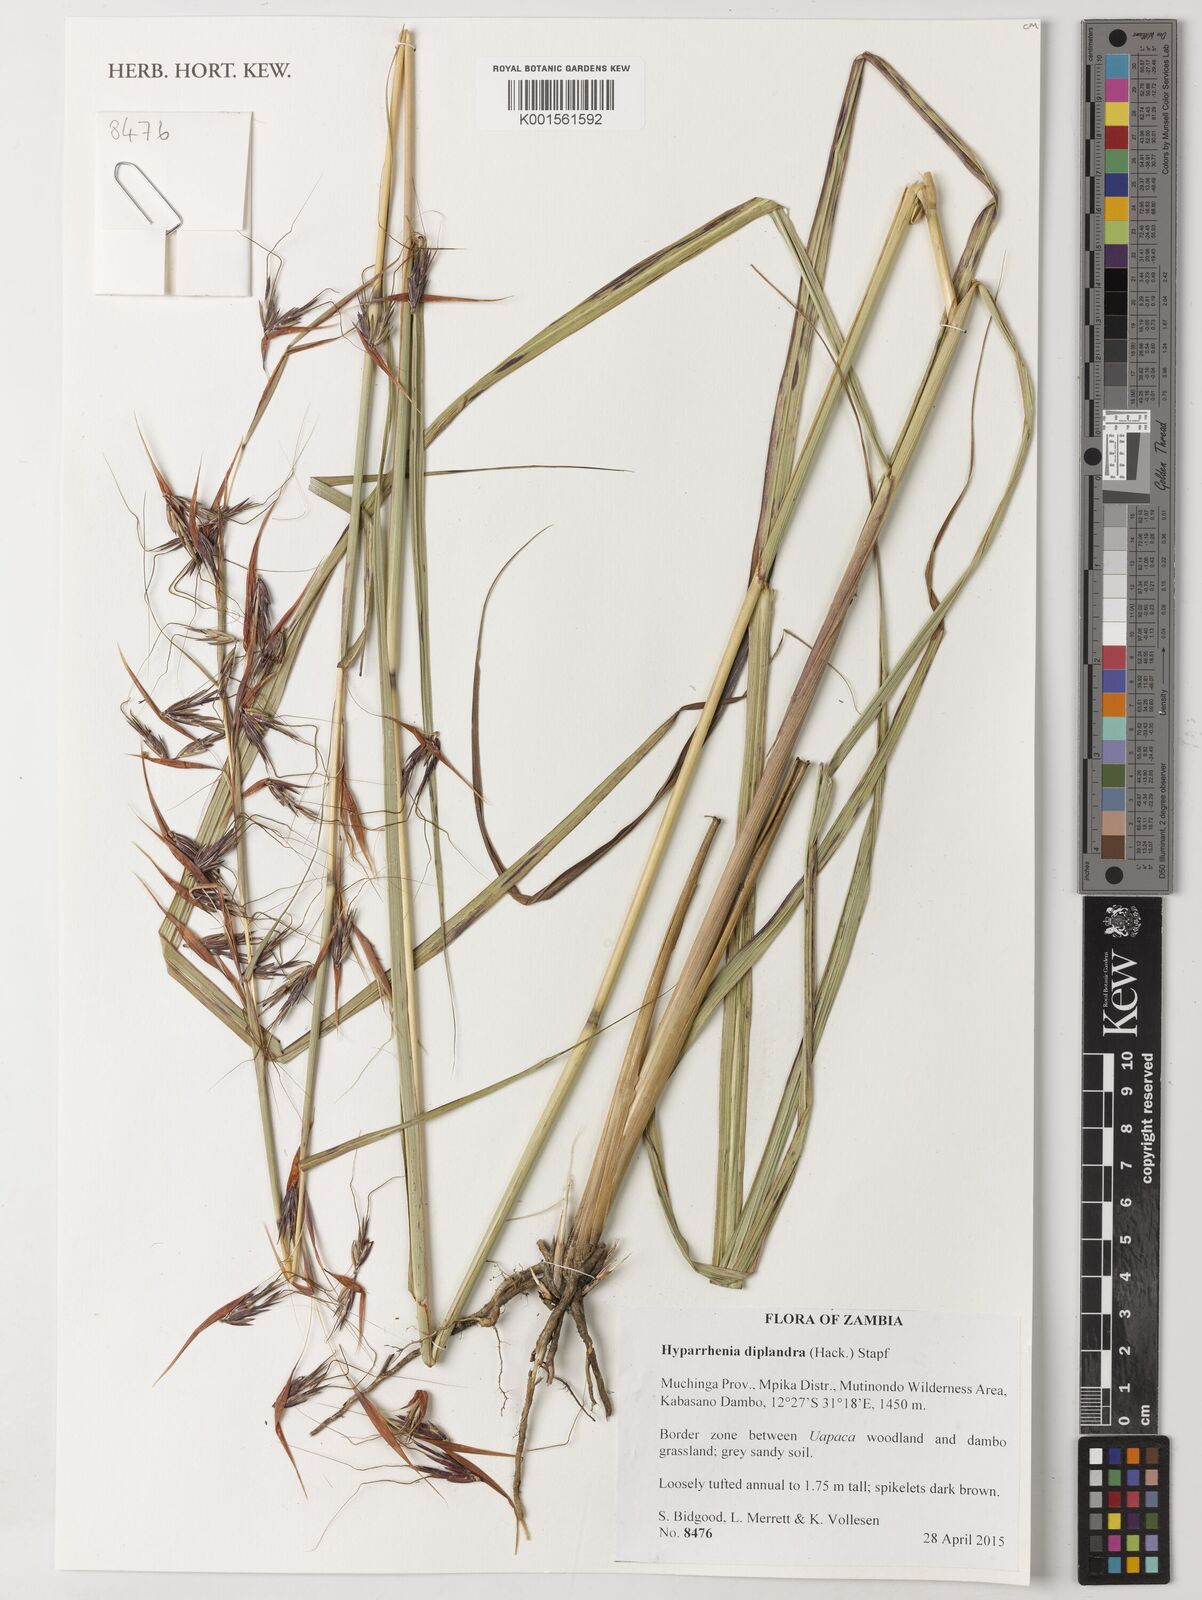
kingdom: Plantae
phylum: Tracheophyta
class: Liliopsida
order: Poales
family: Poaceae
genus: Hyparrhenia
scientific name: Hyparrhenia diplandra
